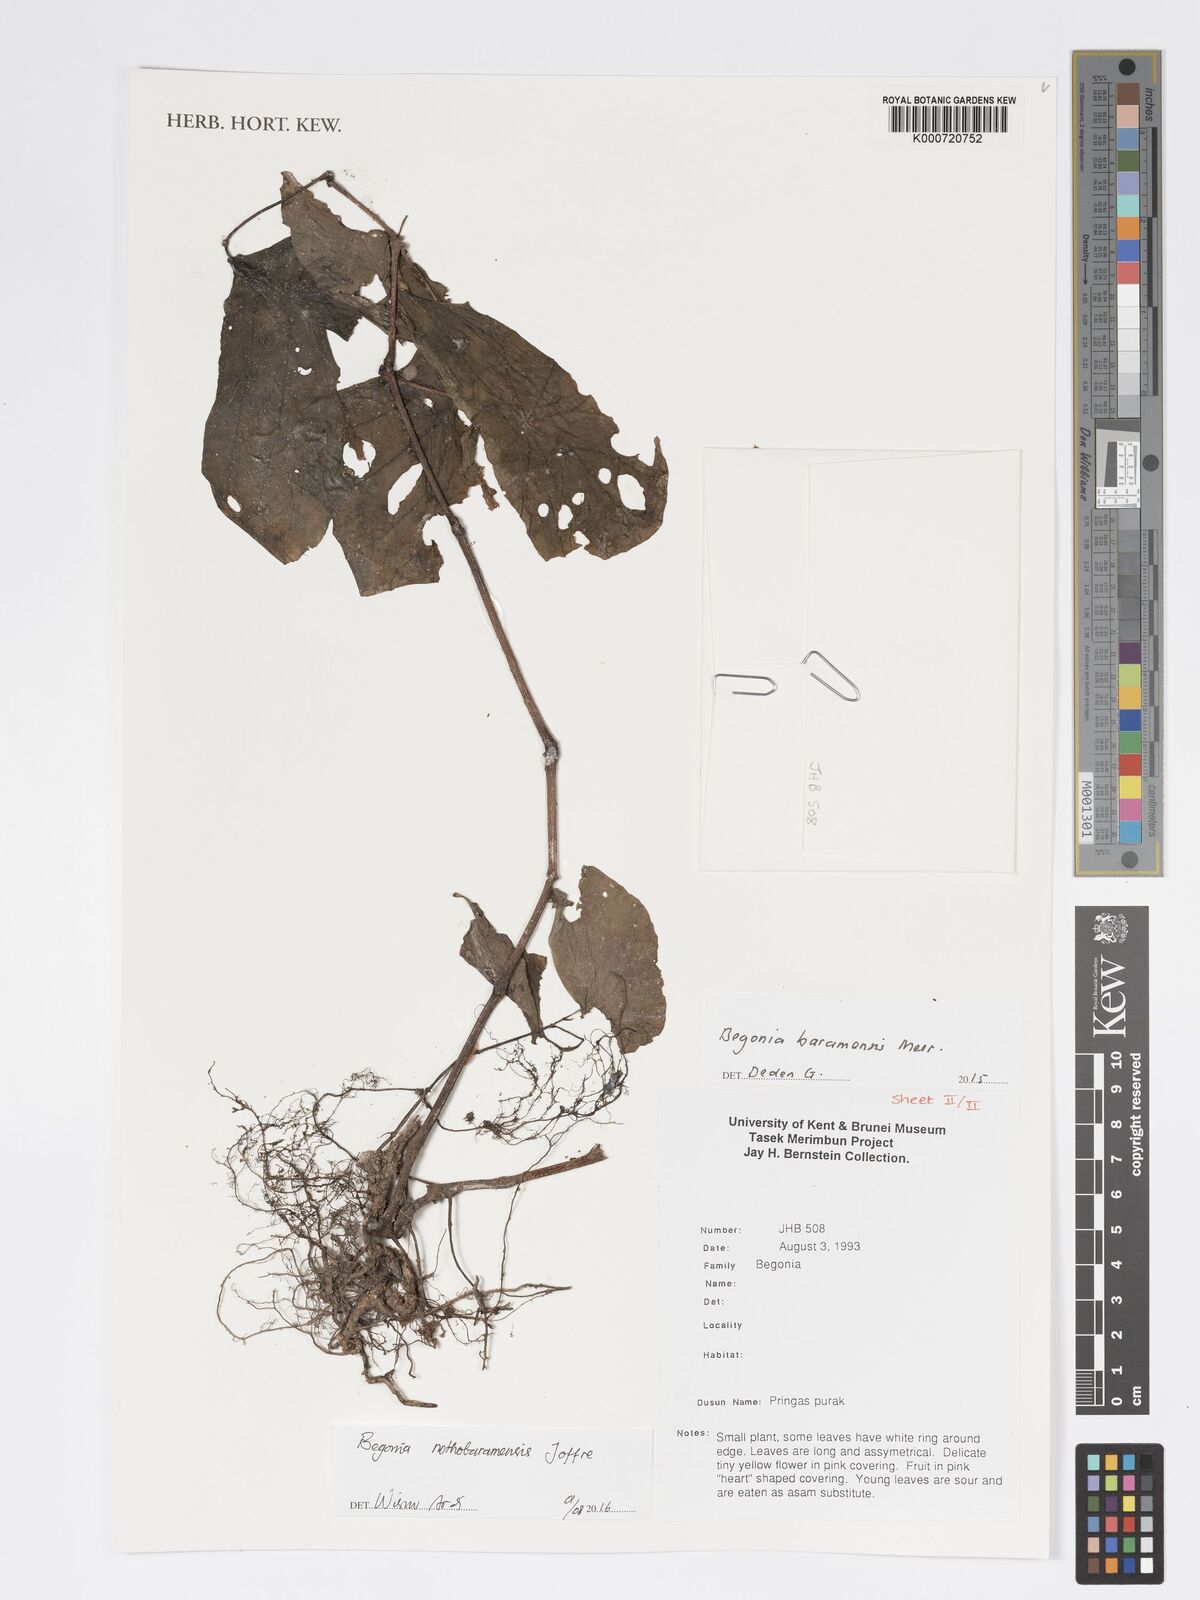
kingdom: Plantae
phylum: Tracheophyta
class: Magnoliopsida
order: Cucurbitales
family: Begoniaceae
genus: Begonia
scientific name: Begonia nothobaramensis
